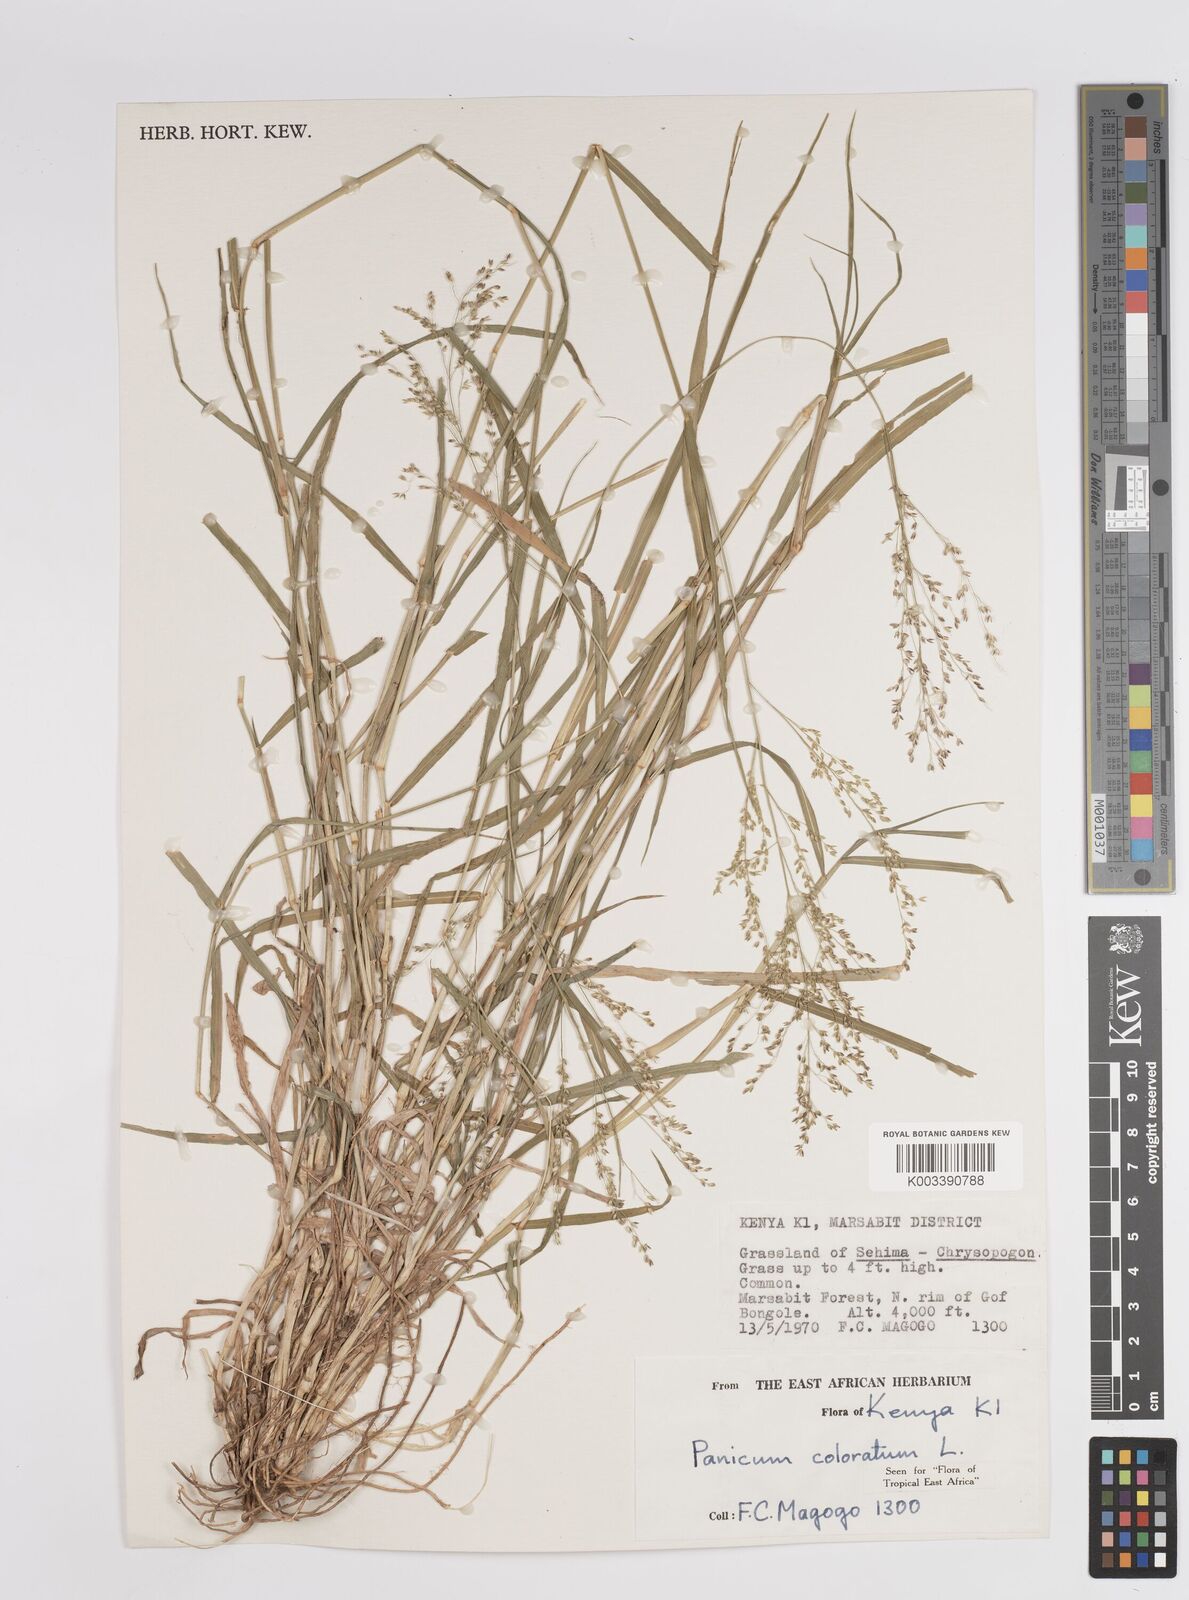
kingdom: Plantae
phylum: Tracheophyta
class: Liliopsida
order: Poales
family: Poaceae
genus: Panicum
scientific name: Panicum coloratum
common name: Kleingrass
